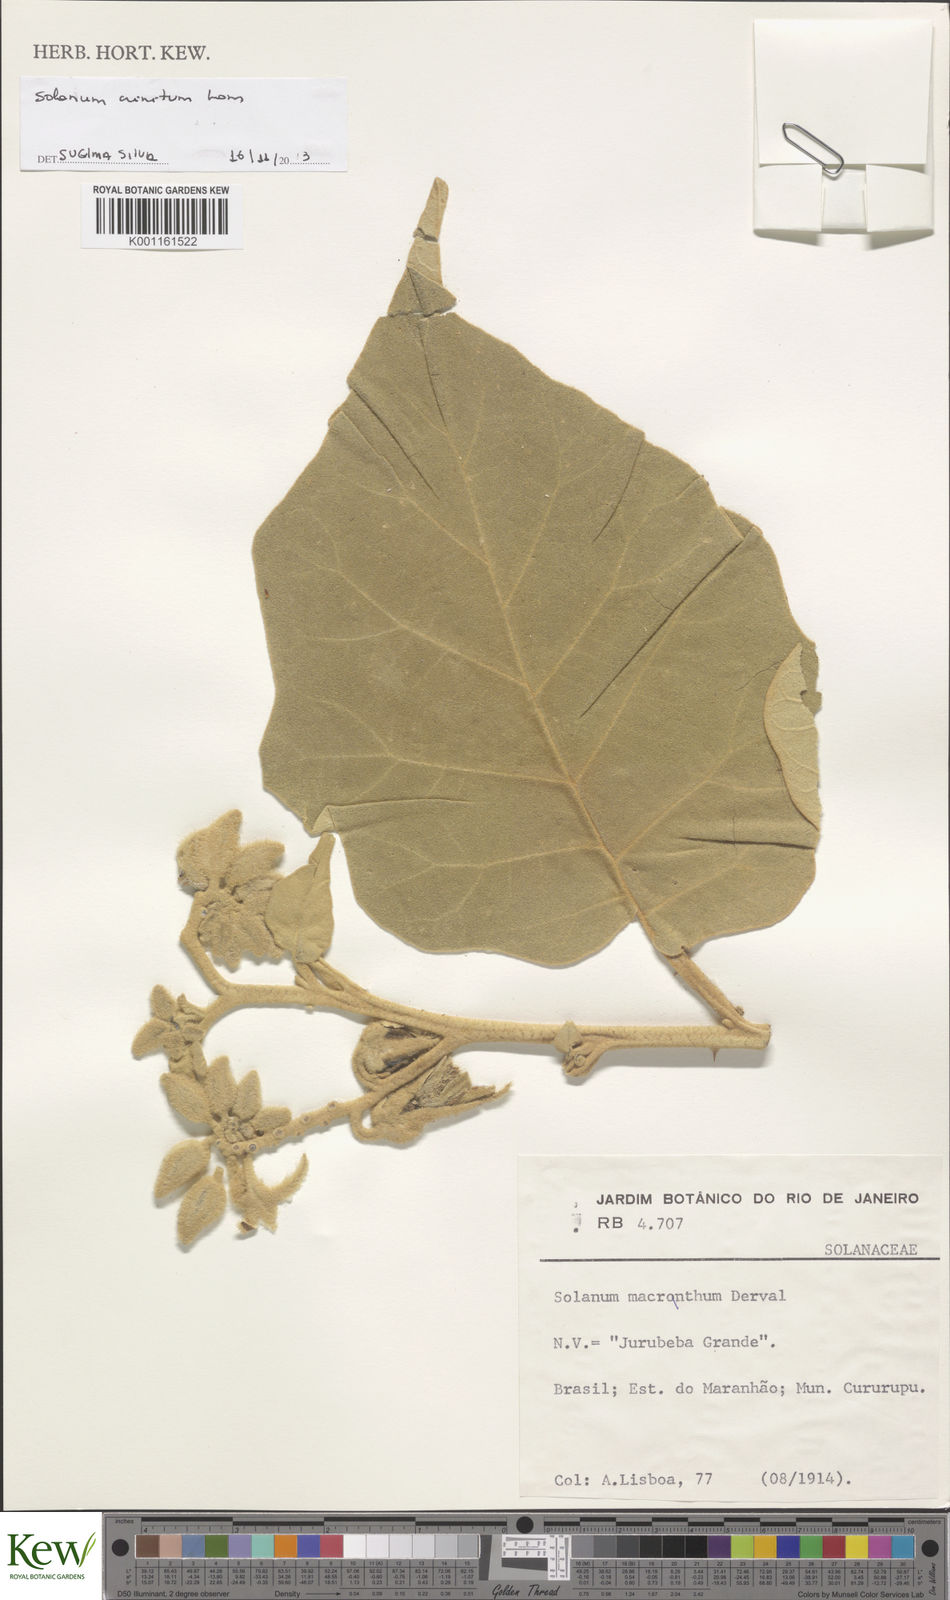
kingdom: Plantae
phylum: Tracheophyta
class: Magnoliopsida
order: Solanales
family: Solanaceae
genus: Solanum
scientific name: Solanum crinitum
